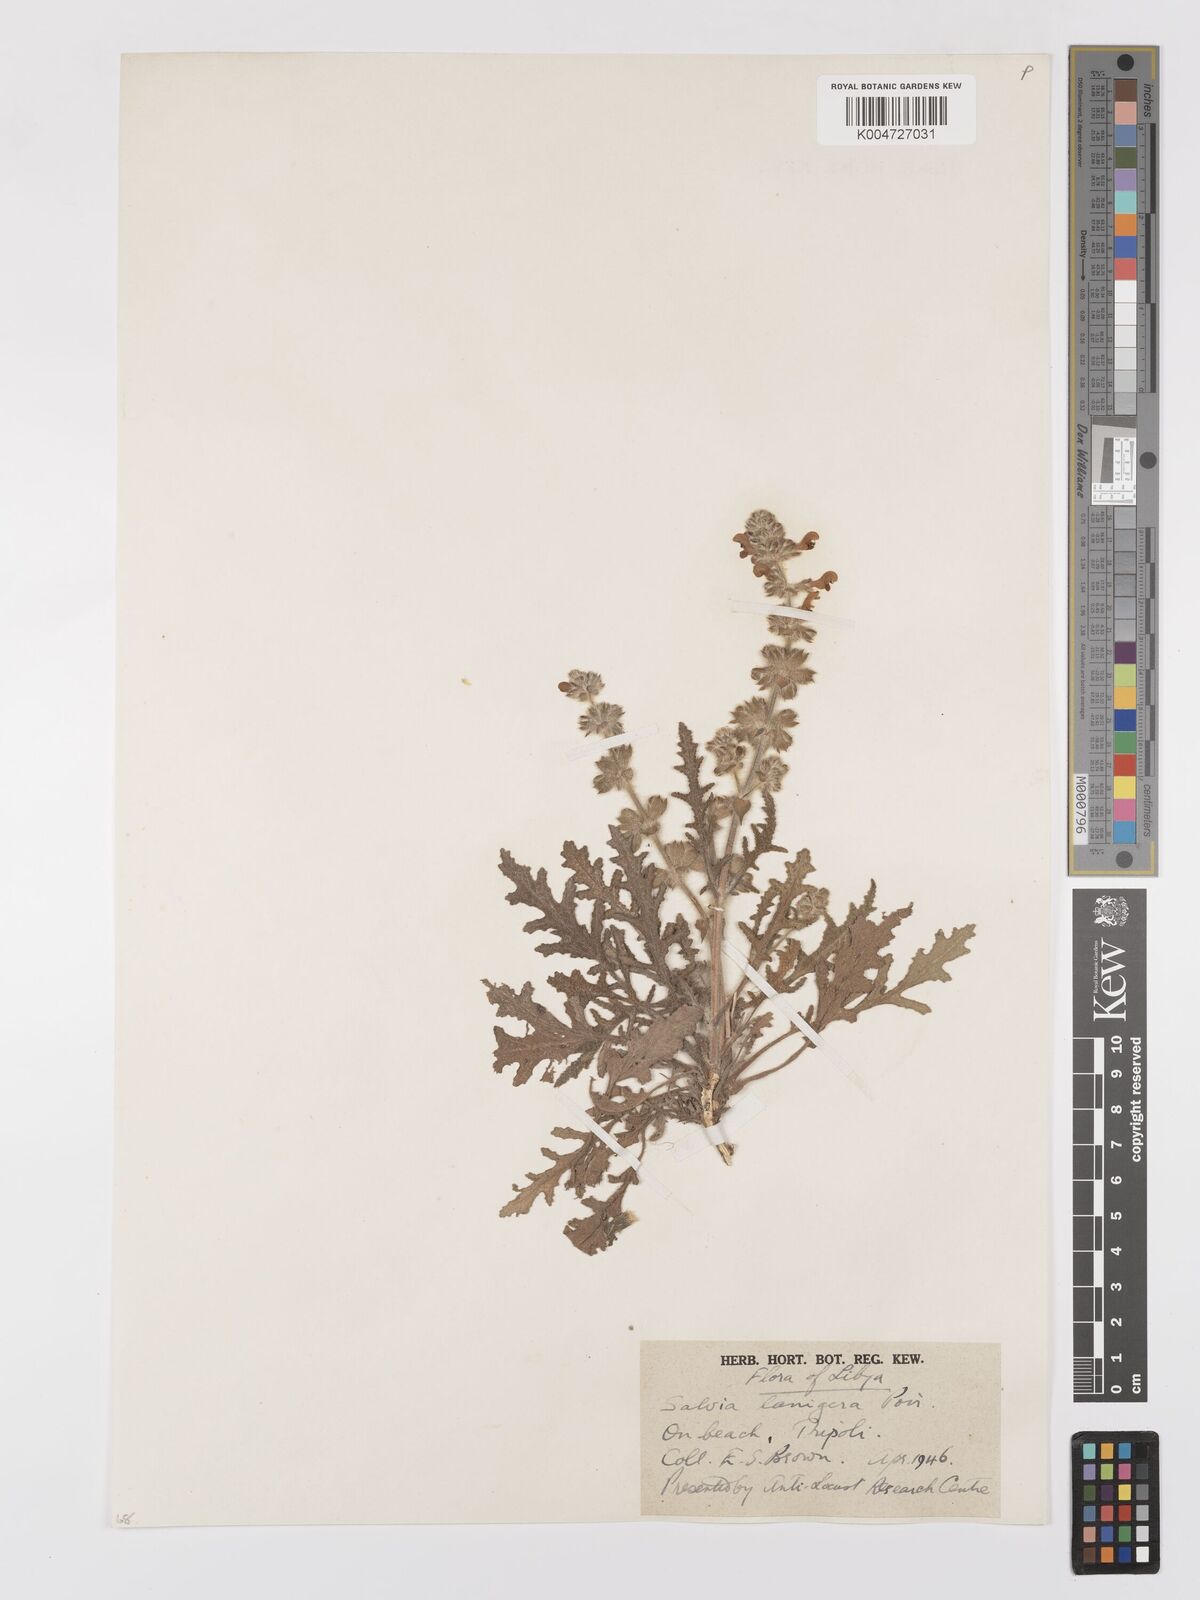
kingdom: Plantae
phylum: Tracheophyta
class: Magnoliopsida
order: Lamiales
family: Lamiaceae
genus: Salvia
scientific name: Salvia lanigera
